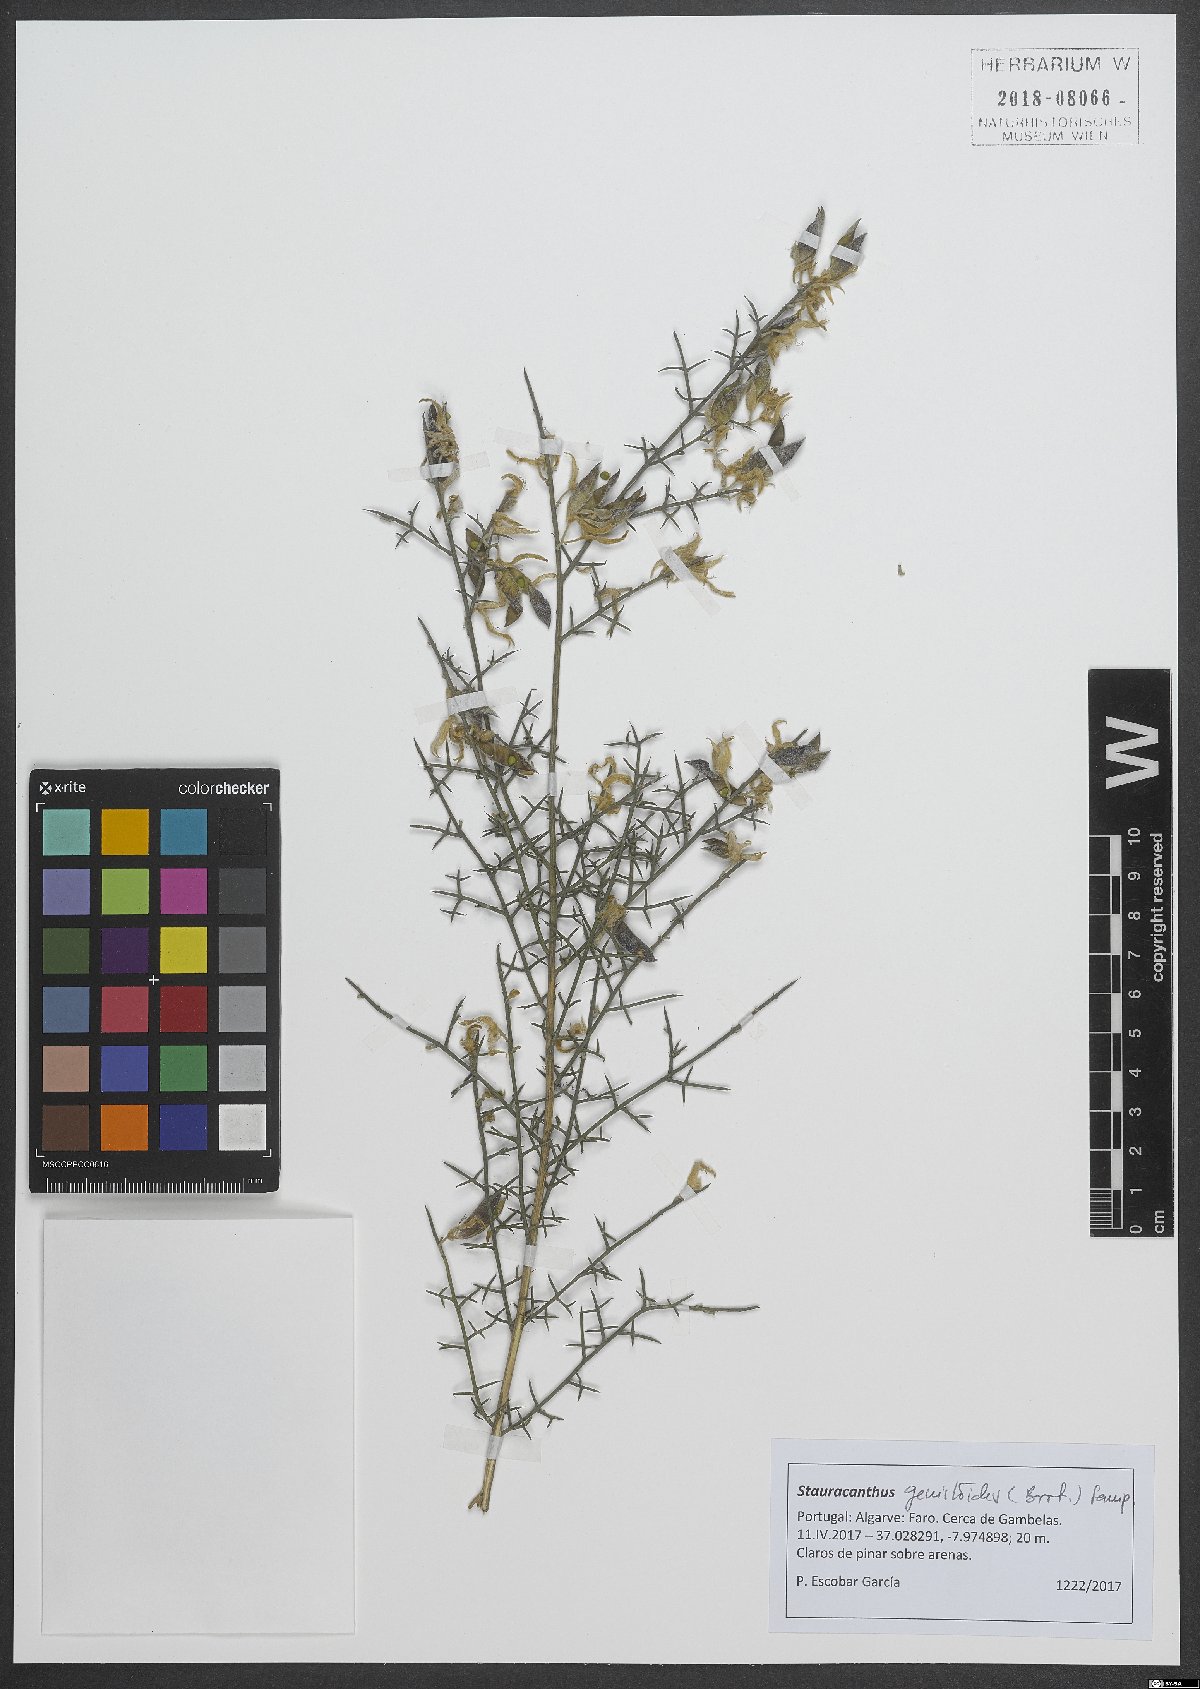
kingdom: Plantae
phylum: Tracheophyta
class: Magnoliopsida
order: Fabales
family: Fabaceae
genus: Stauracanthus
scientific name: Stauracanthus genistoides
